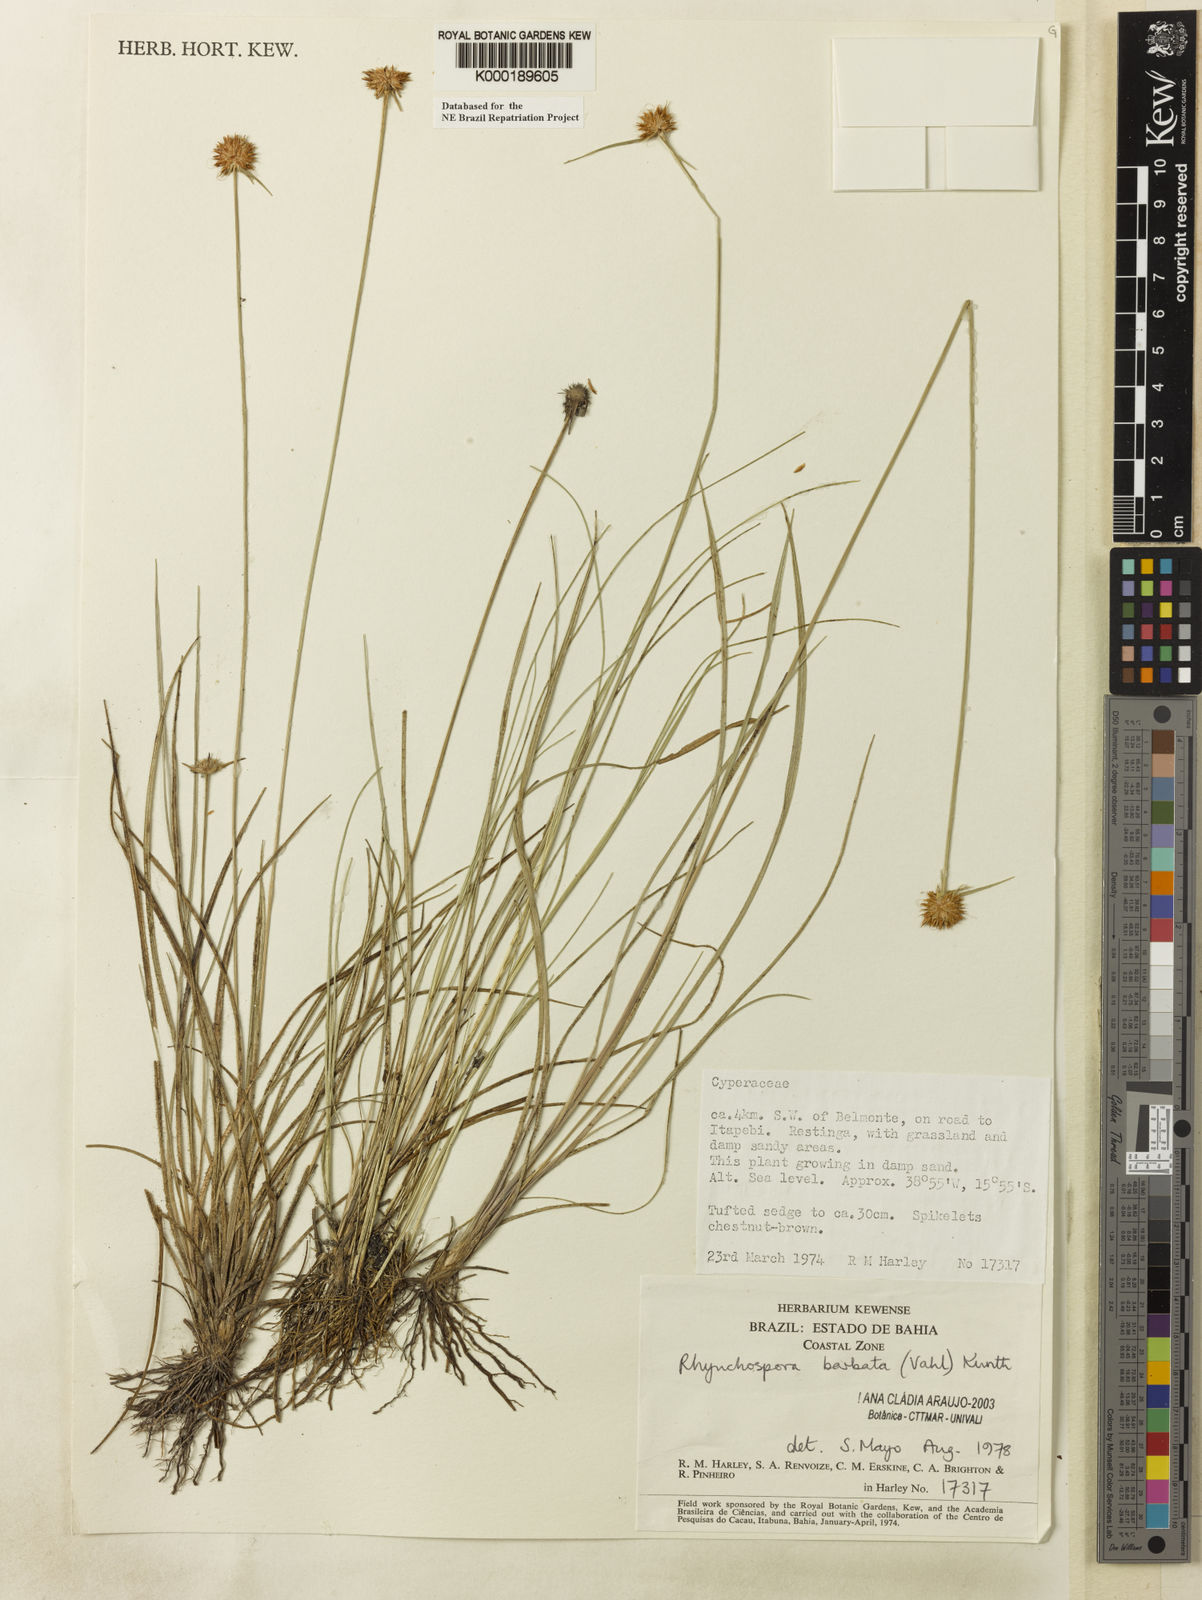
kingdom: Plantae
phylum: Tracheophyta
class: Liliopsida
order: Poales
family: Cyperaceae
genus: Rhynchospora
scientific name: Rhynchospora barbata
